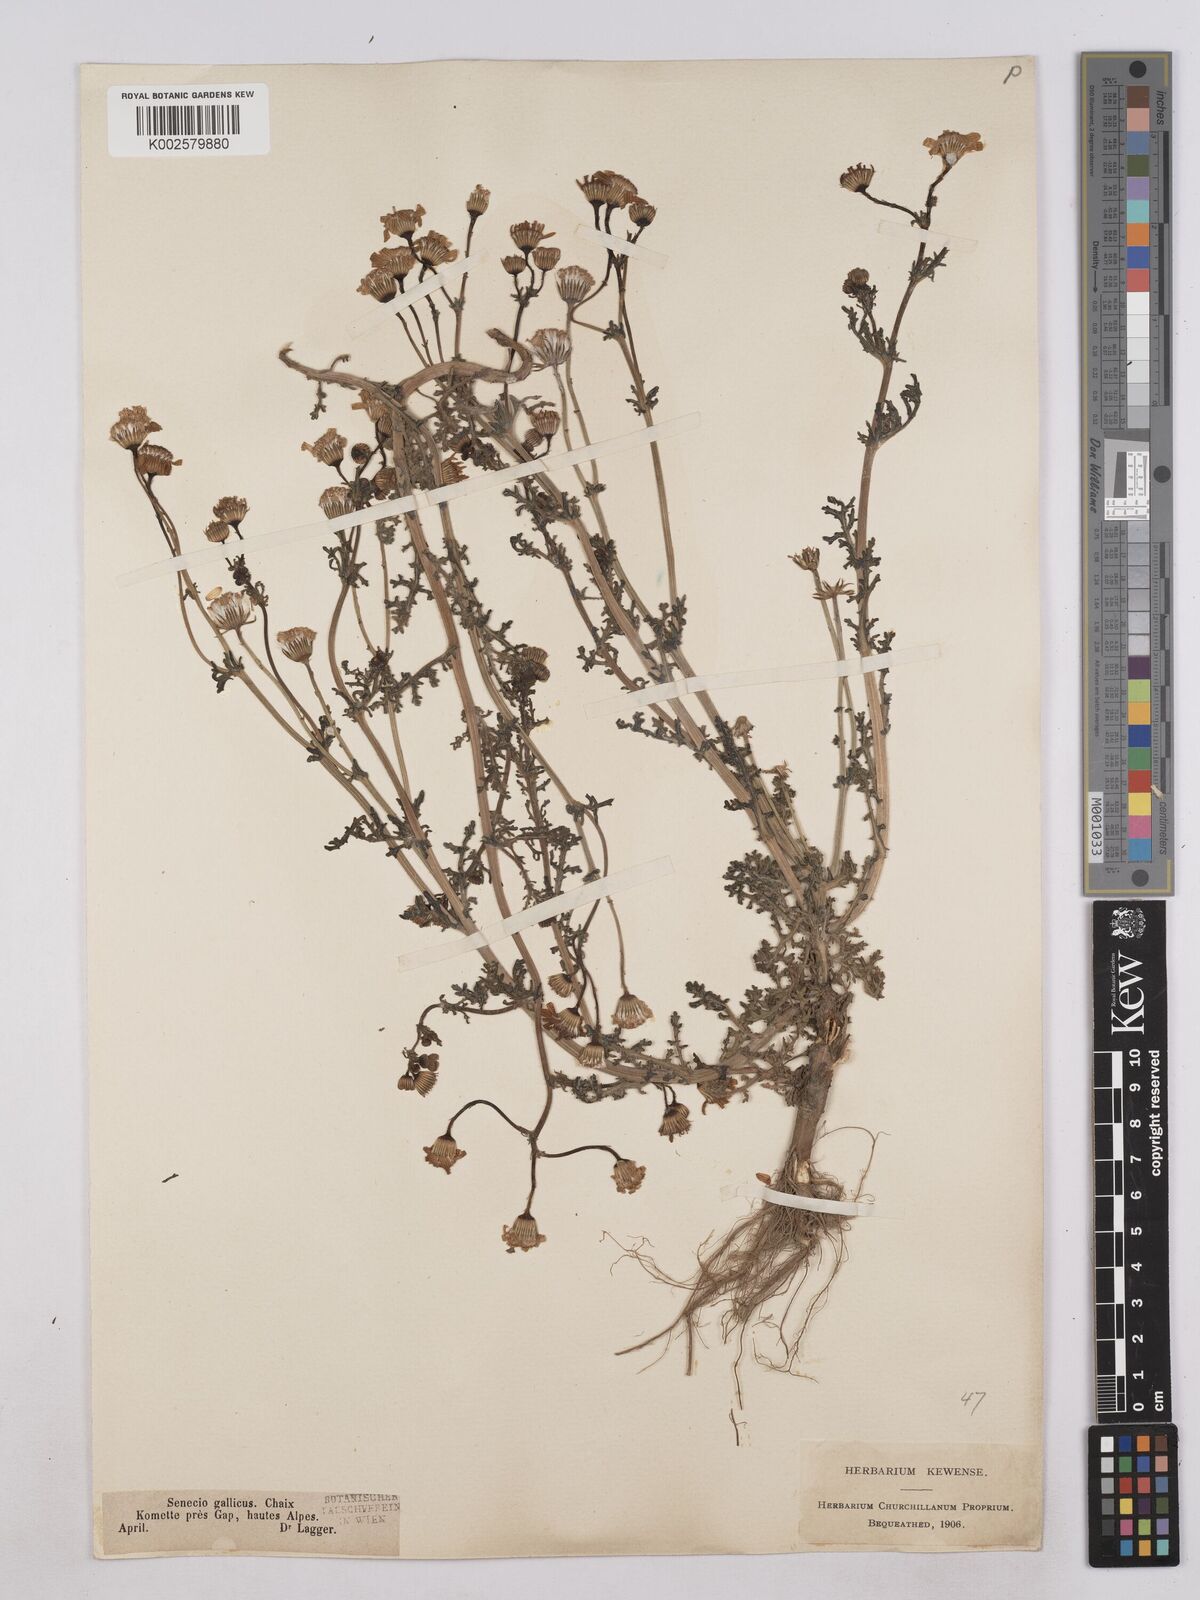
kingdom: Plantae
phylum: Tracheophyta
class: Magnoliopsida
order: Asterales
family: Asteraceae
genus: Senecio
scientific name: Senecio gallicus
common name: French groundsel
